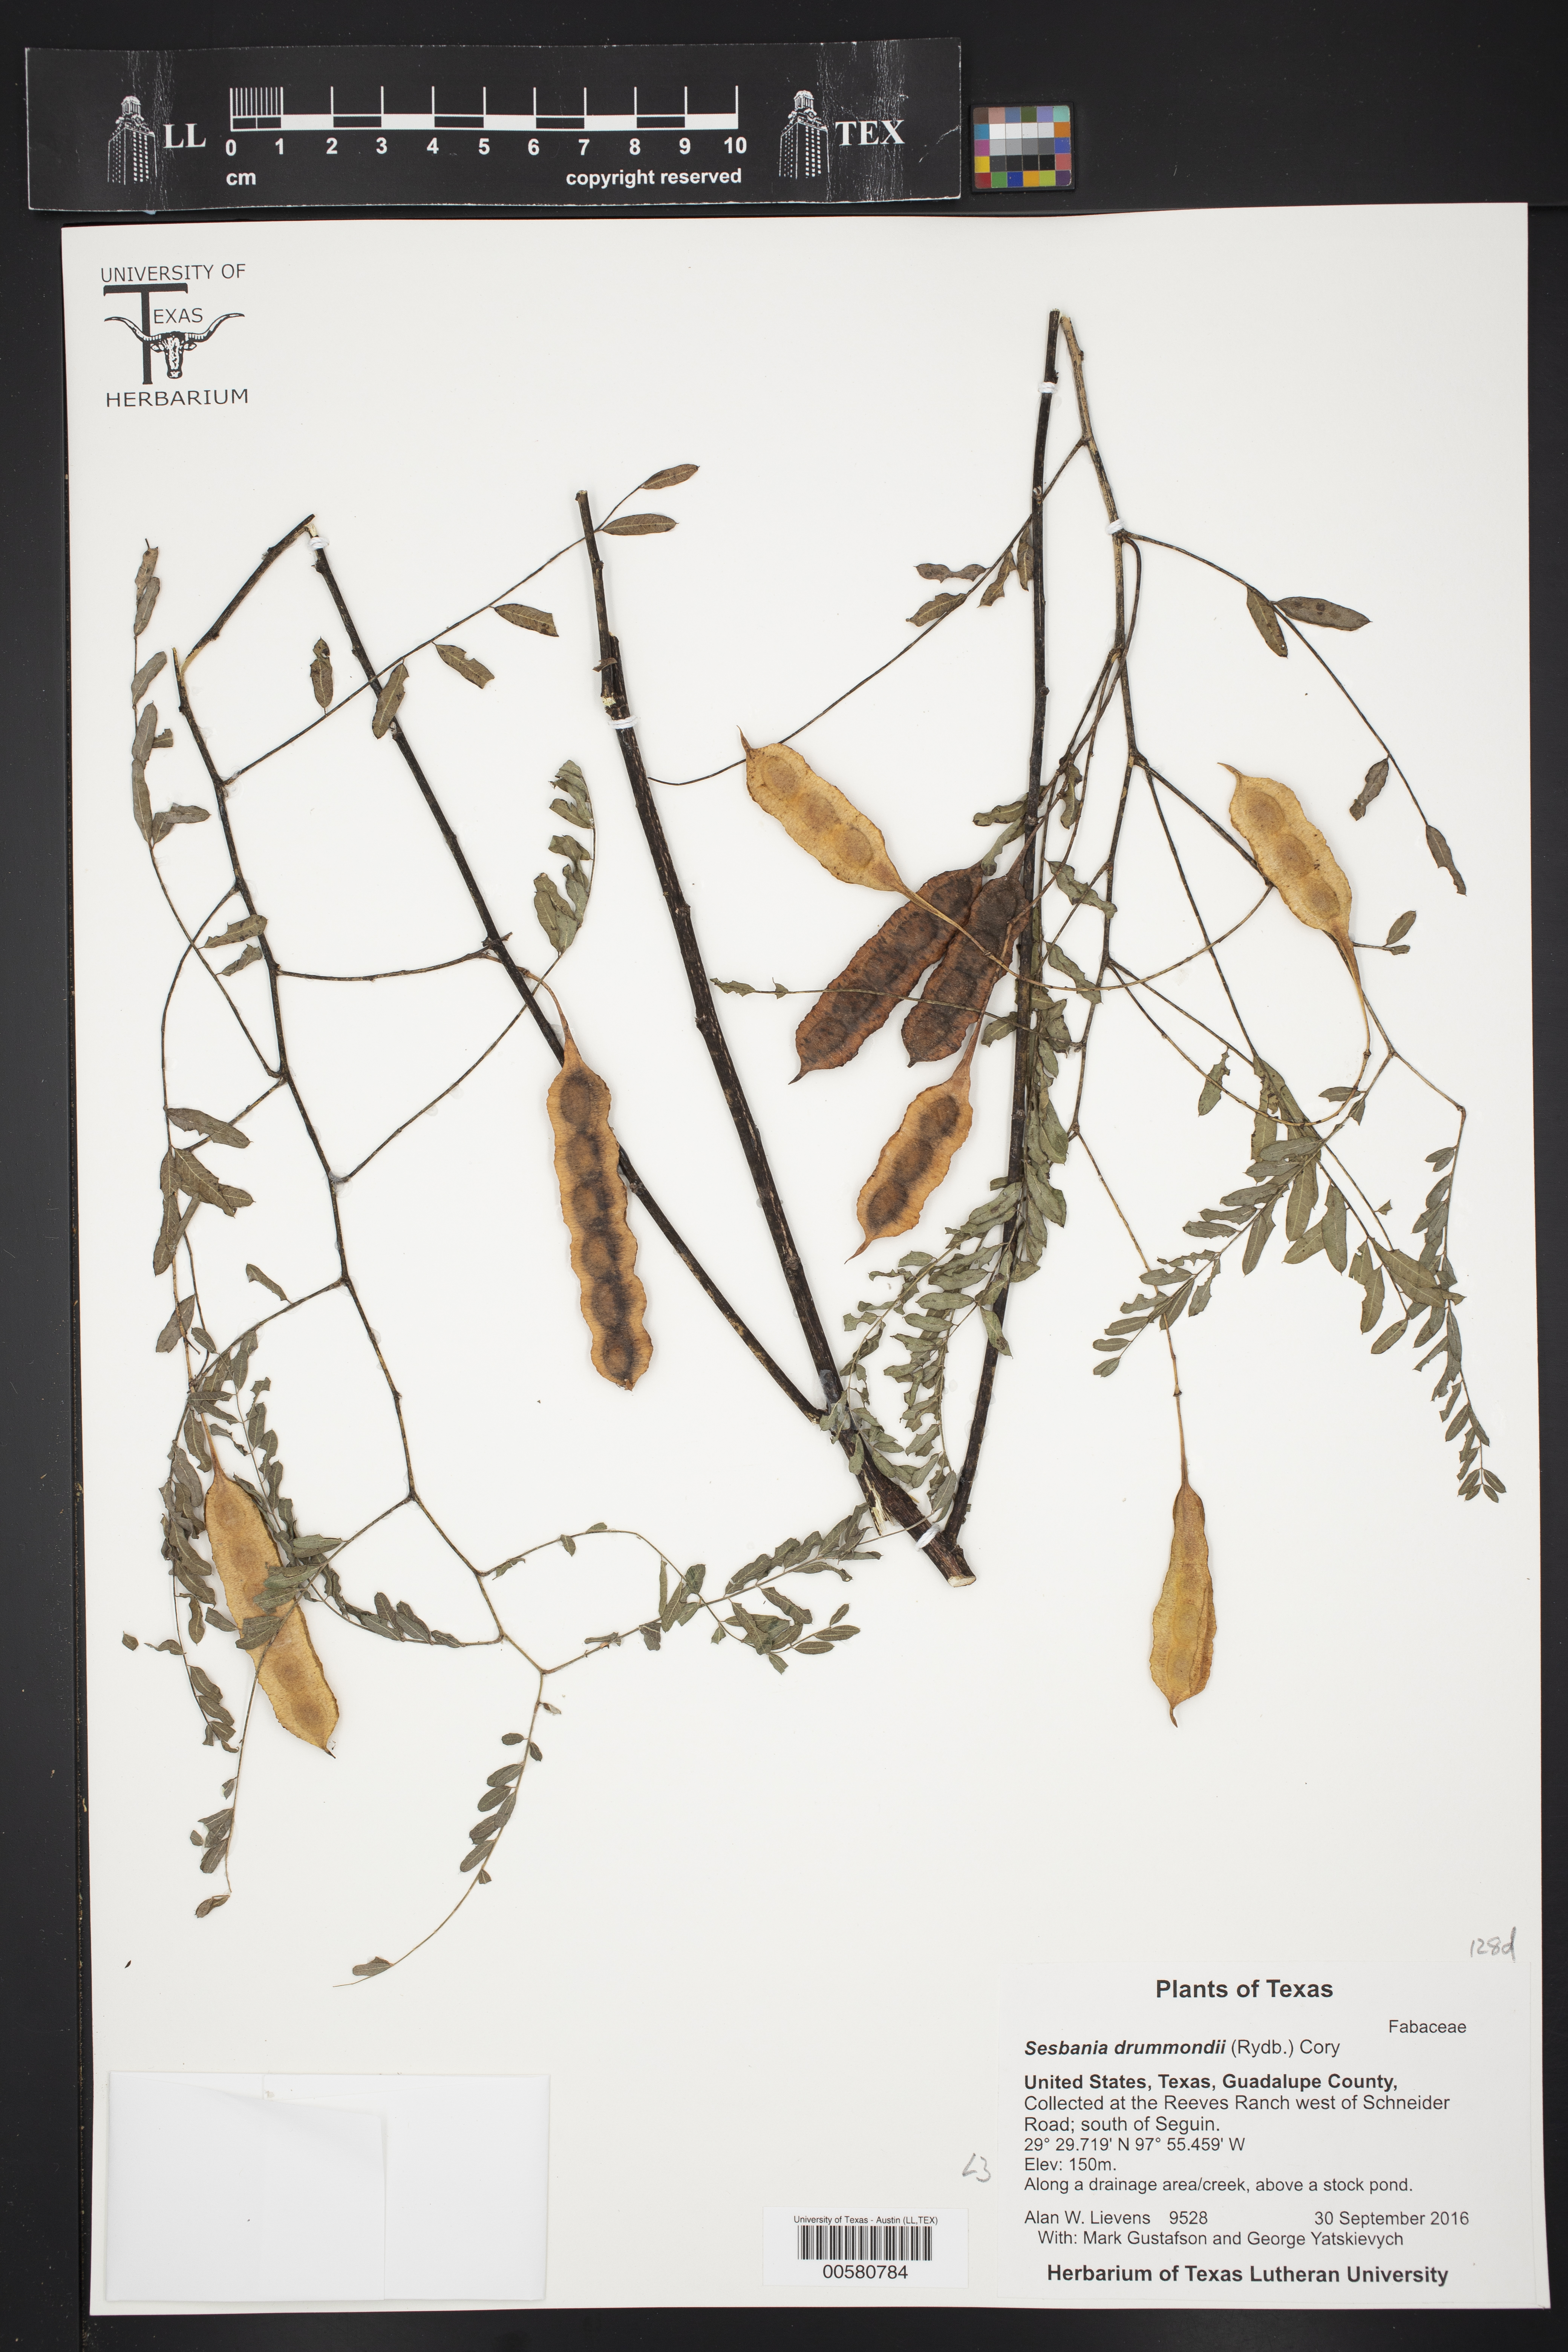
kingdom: Plantae
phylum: Tracheophyta
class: Magnoliopsida
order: Fabales
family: Fabaceae
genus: Sesbania
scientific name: Sesbania drummondii
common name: Poison-bean
